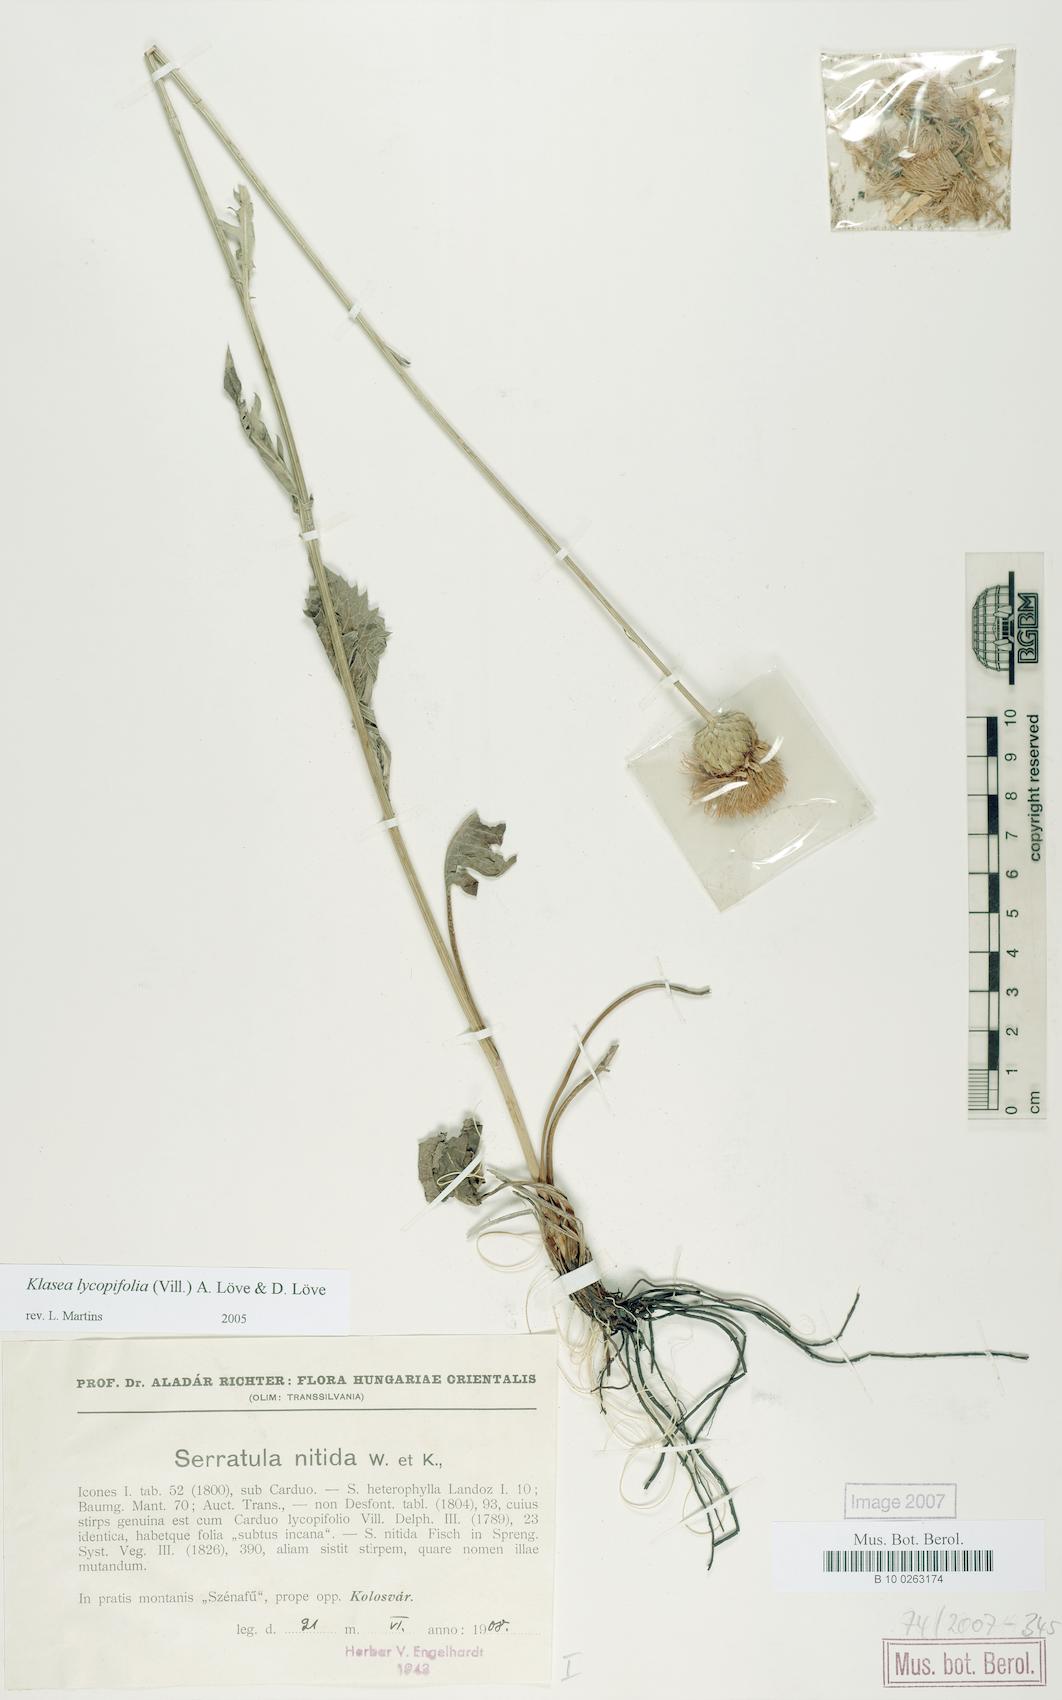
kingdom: Plantae
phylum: Tracheophyta
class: Magnoliopsida
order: Asterales
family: Asteraceae
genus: Klasea
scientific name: Klasea lycopifolia
